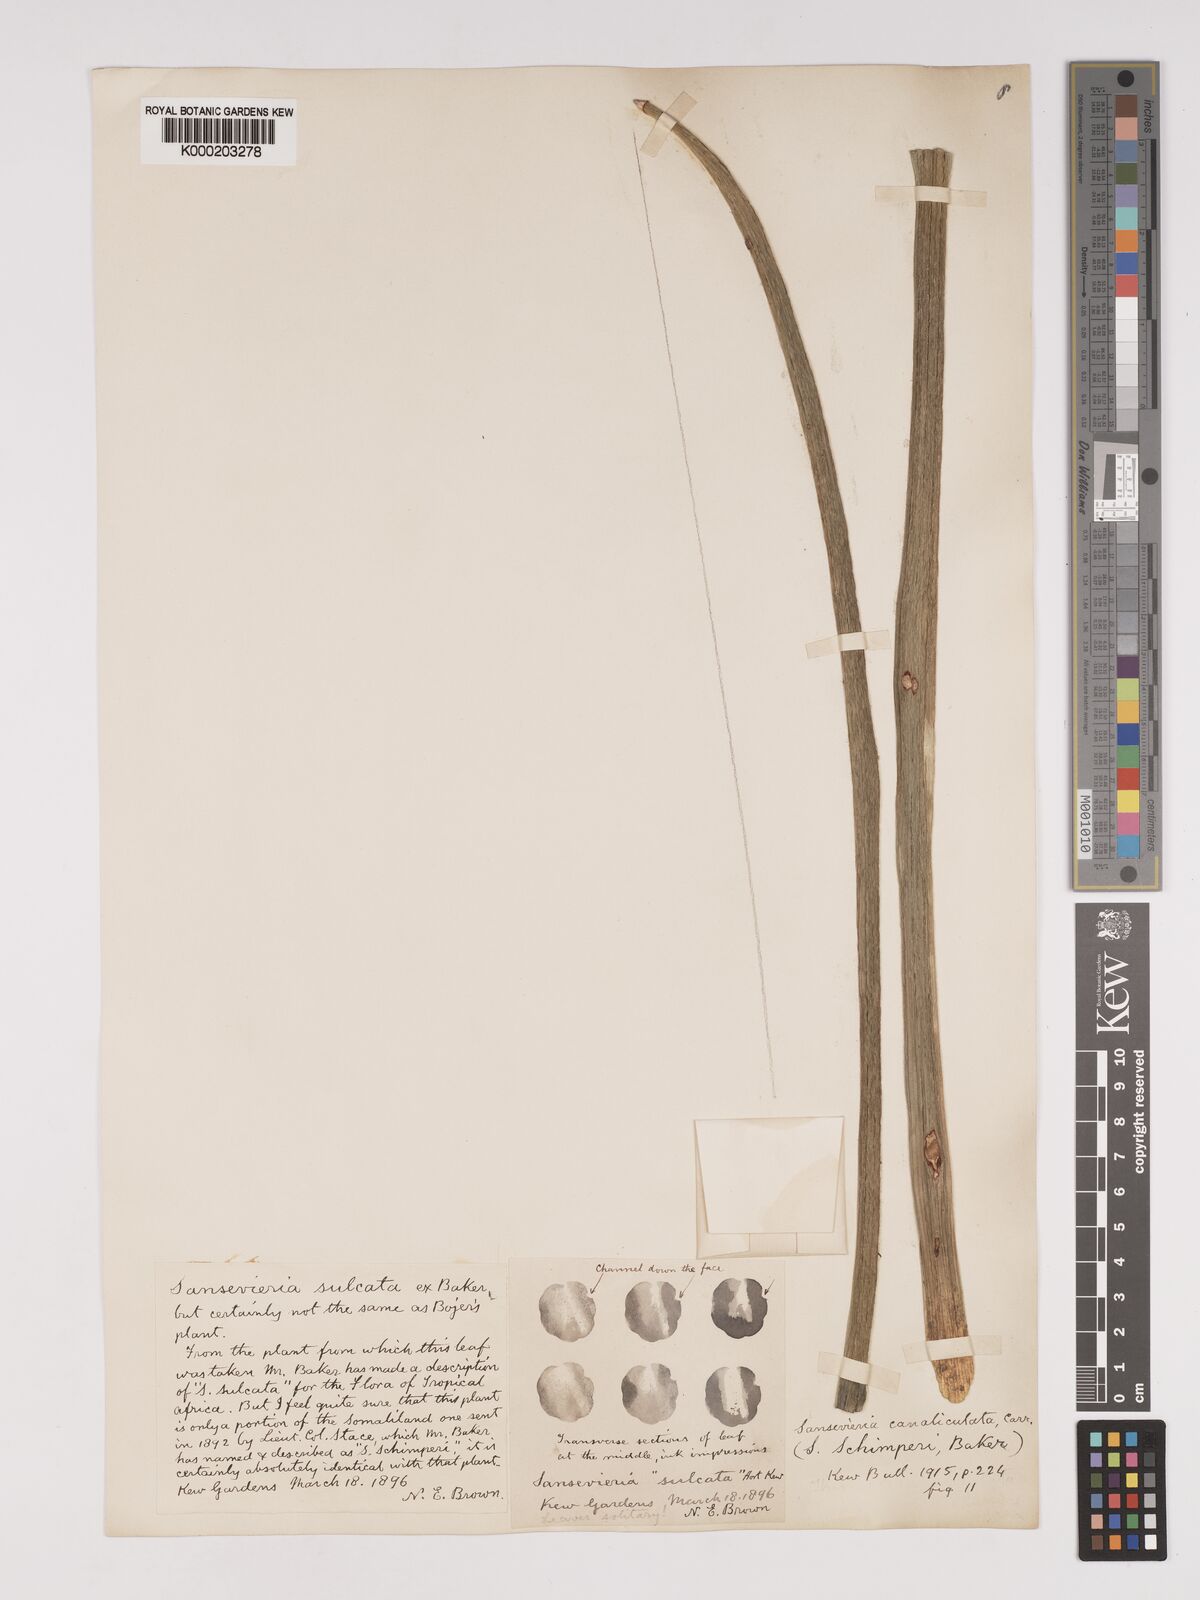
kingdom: Plantae
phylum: Tracheophyta
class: Liliopsida
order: Asparagales
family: Asparagaceae
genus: Dracaena
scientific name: Dracaena
